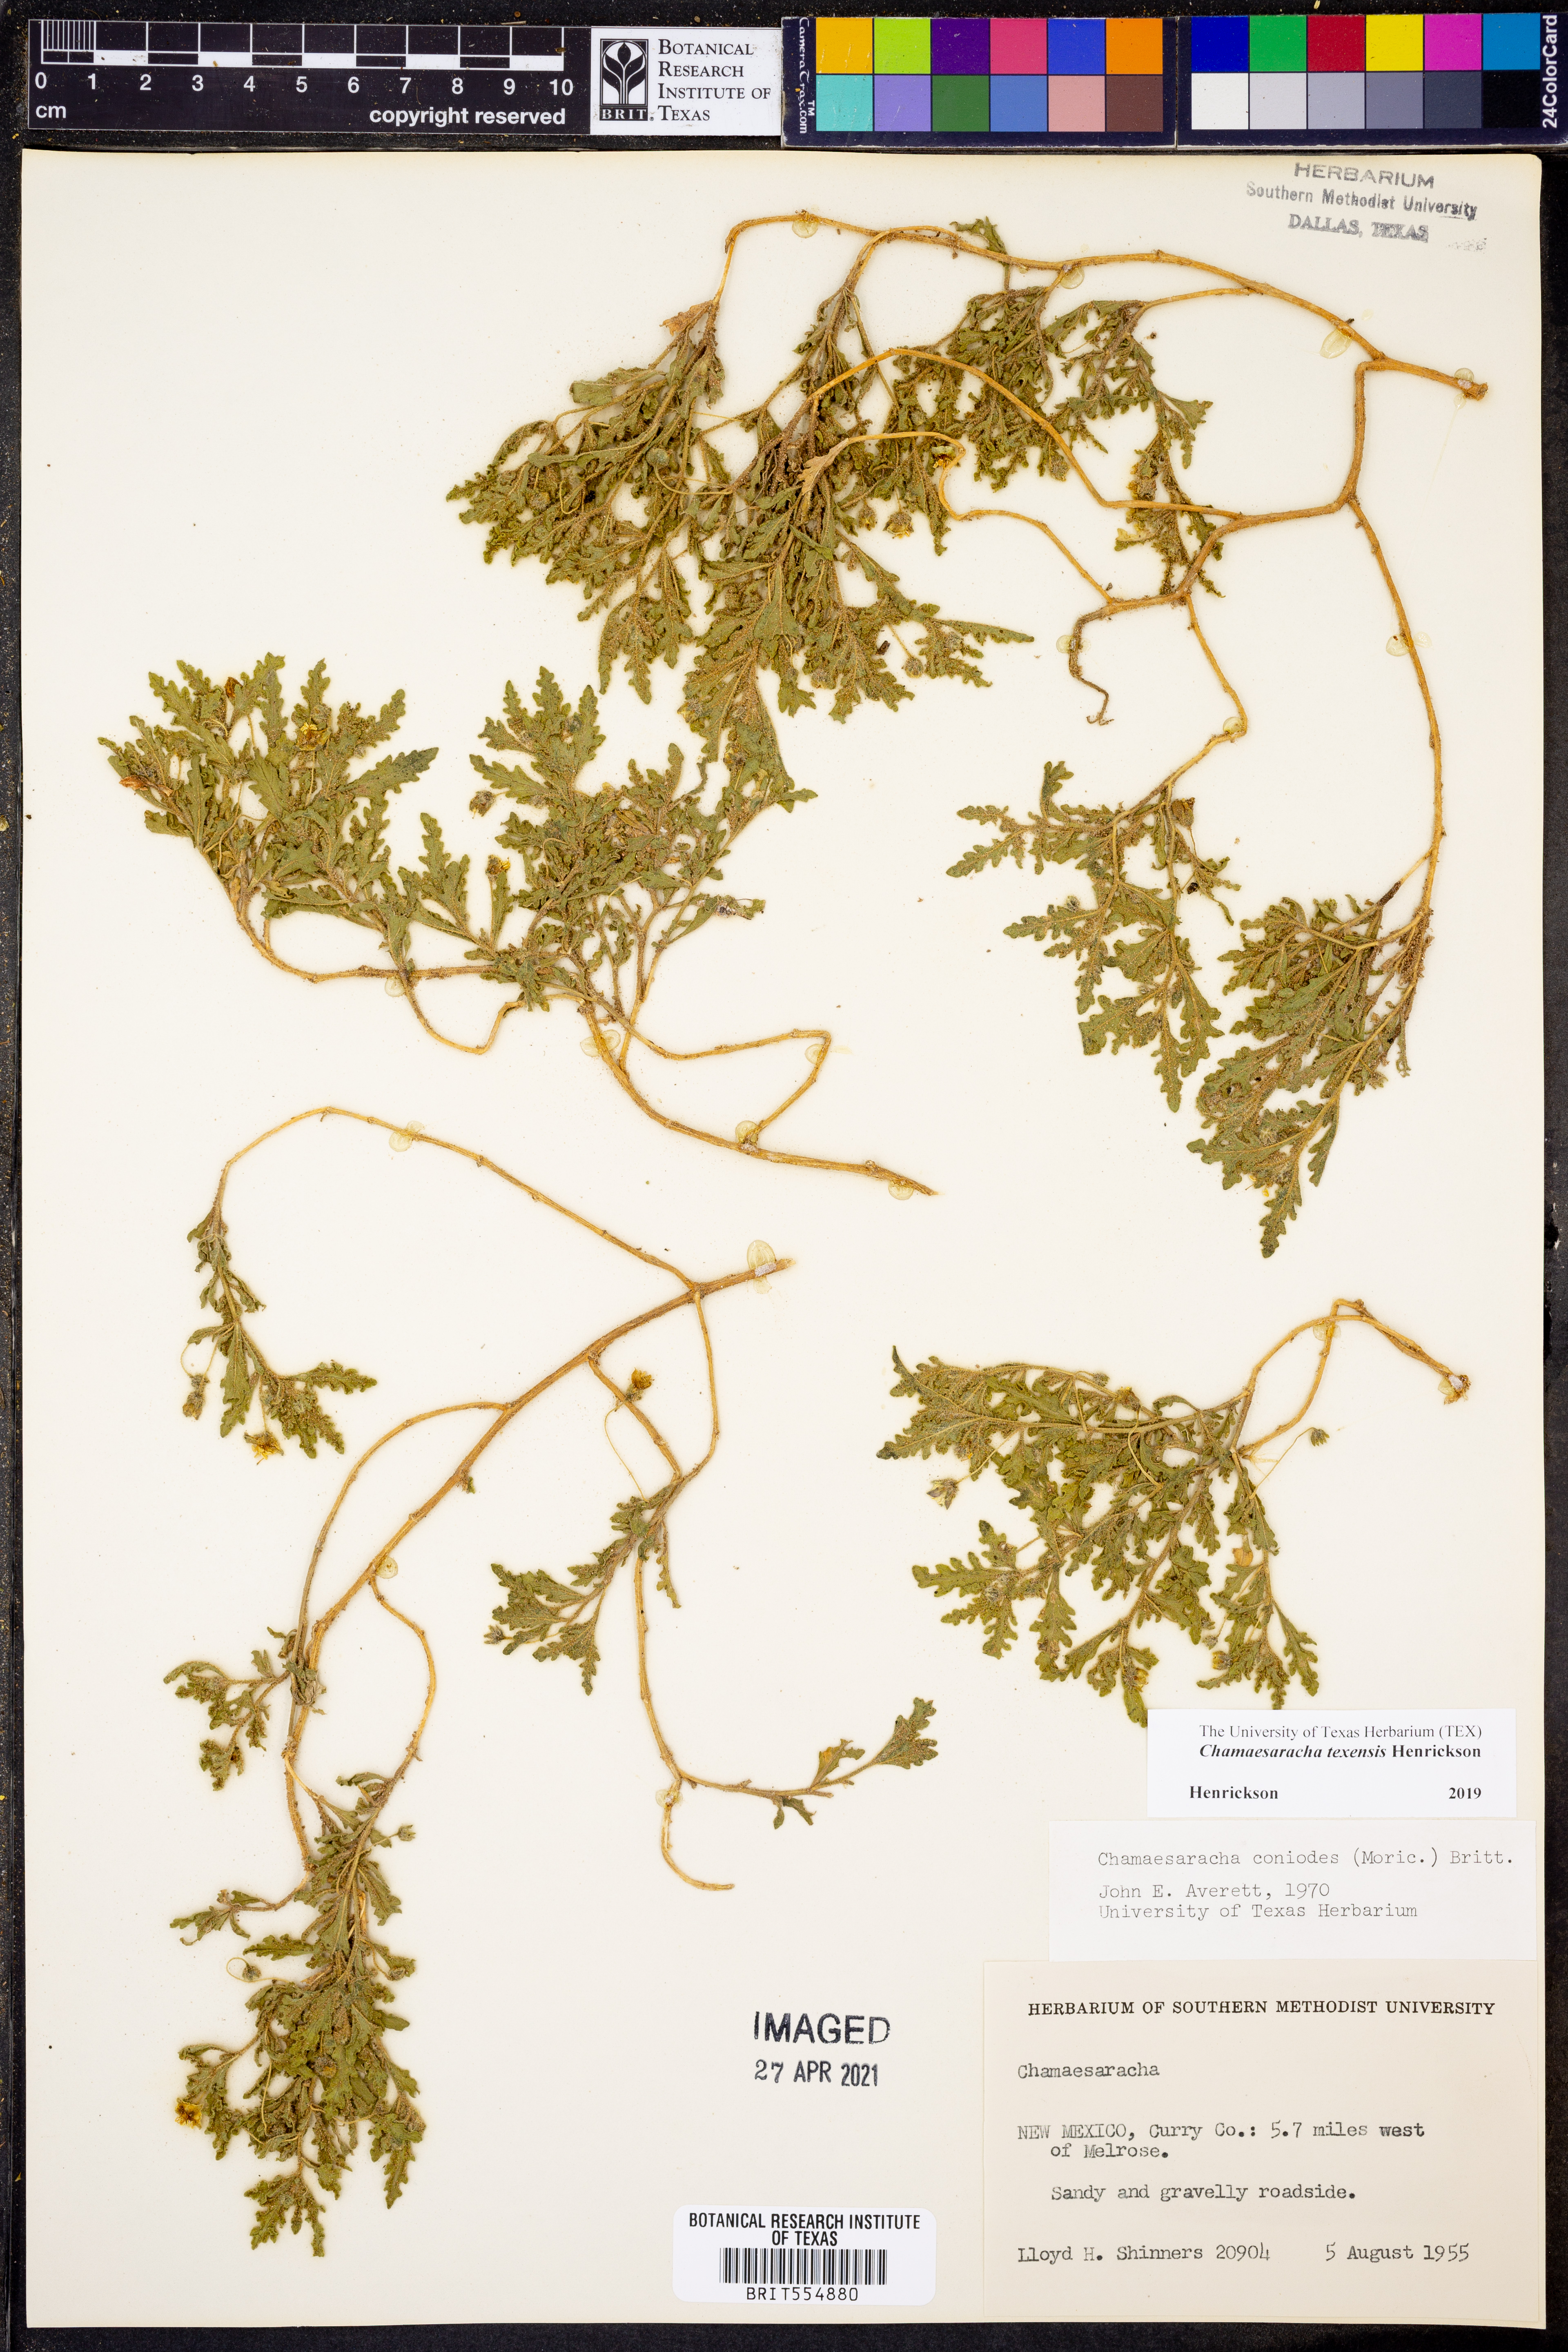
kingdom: Plantae
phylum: Tracheophyta
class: Magnoliopsida
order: Solanales
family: Solanaceae
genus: Chamaesaracha
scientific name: Chamaesaracha texensis
